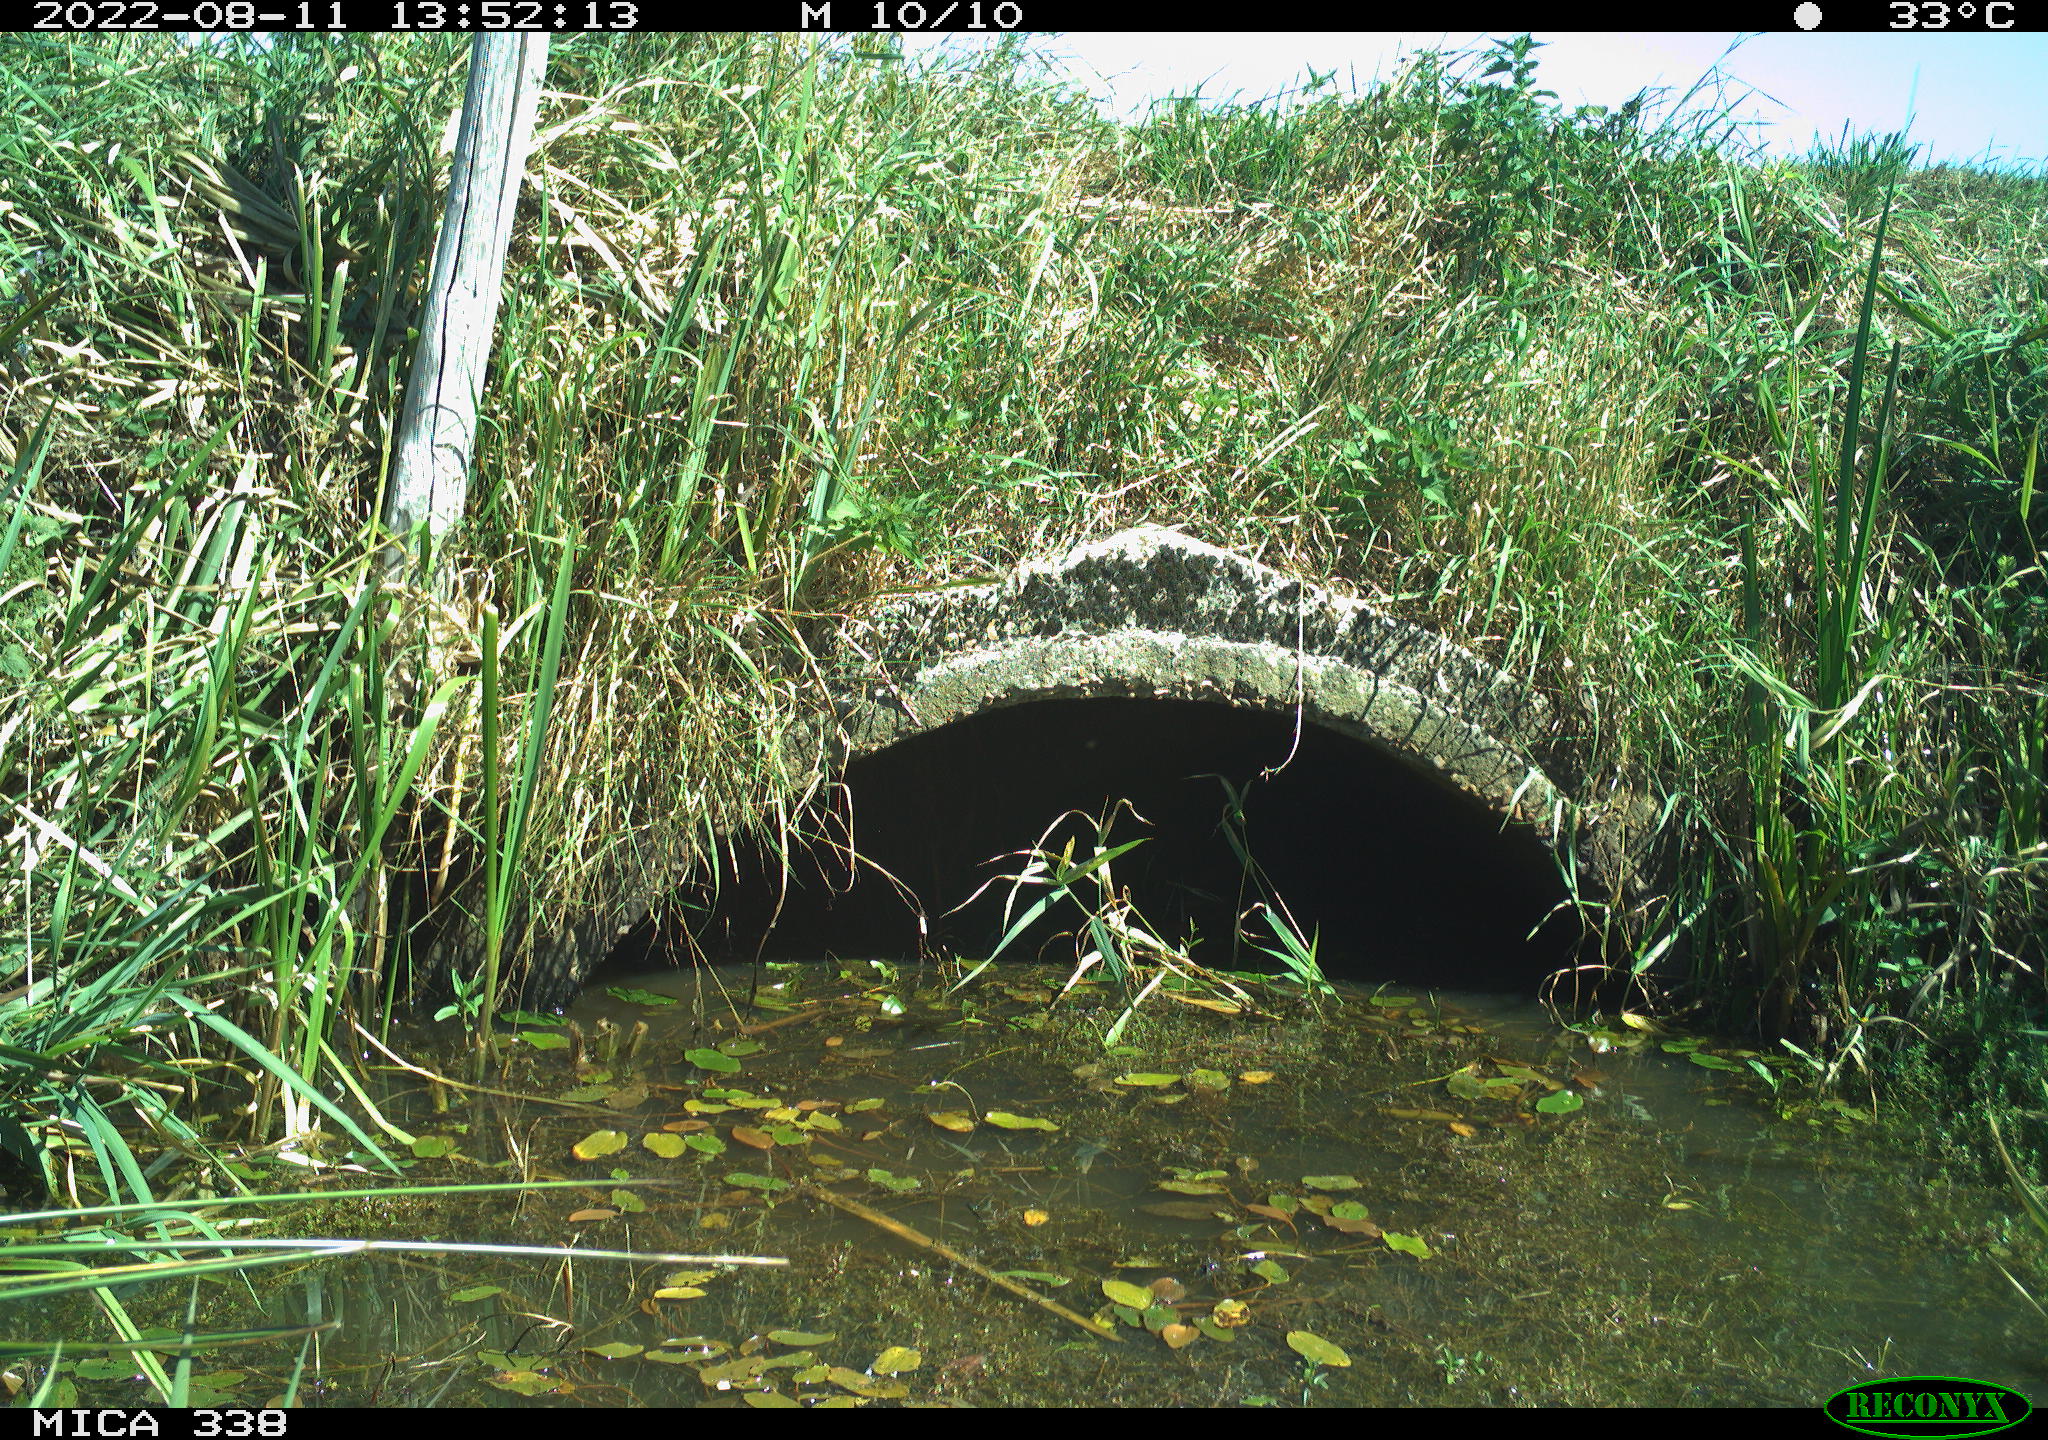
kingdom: Animalia
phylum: Chordata
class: Aves
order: Anseriformes
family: Anatidae
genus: Anas
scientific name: Anas platyrhynchos
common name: Mallard
